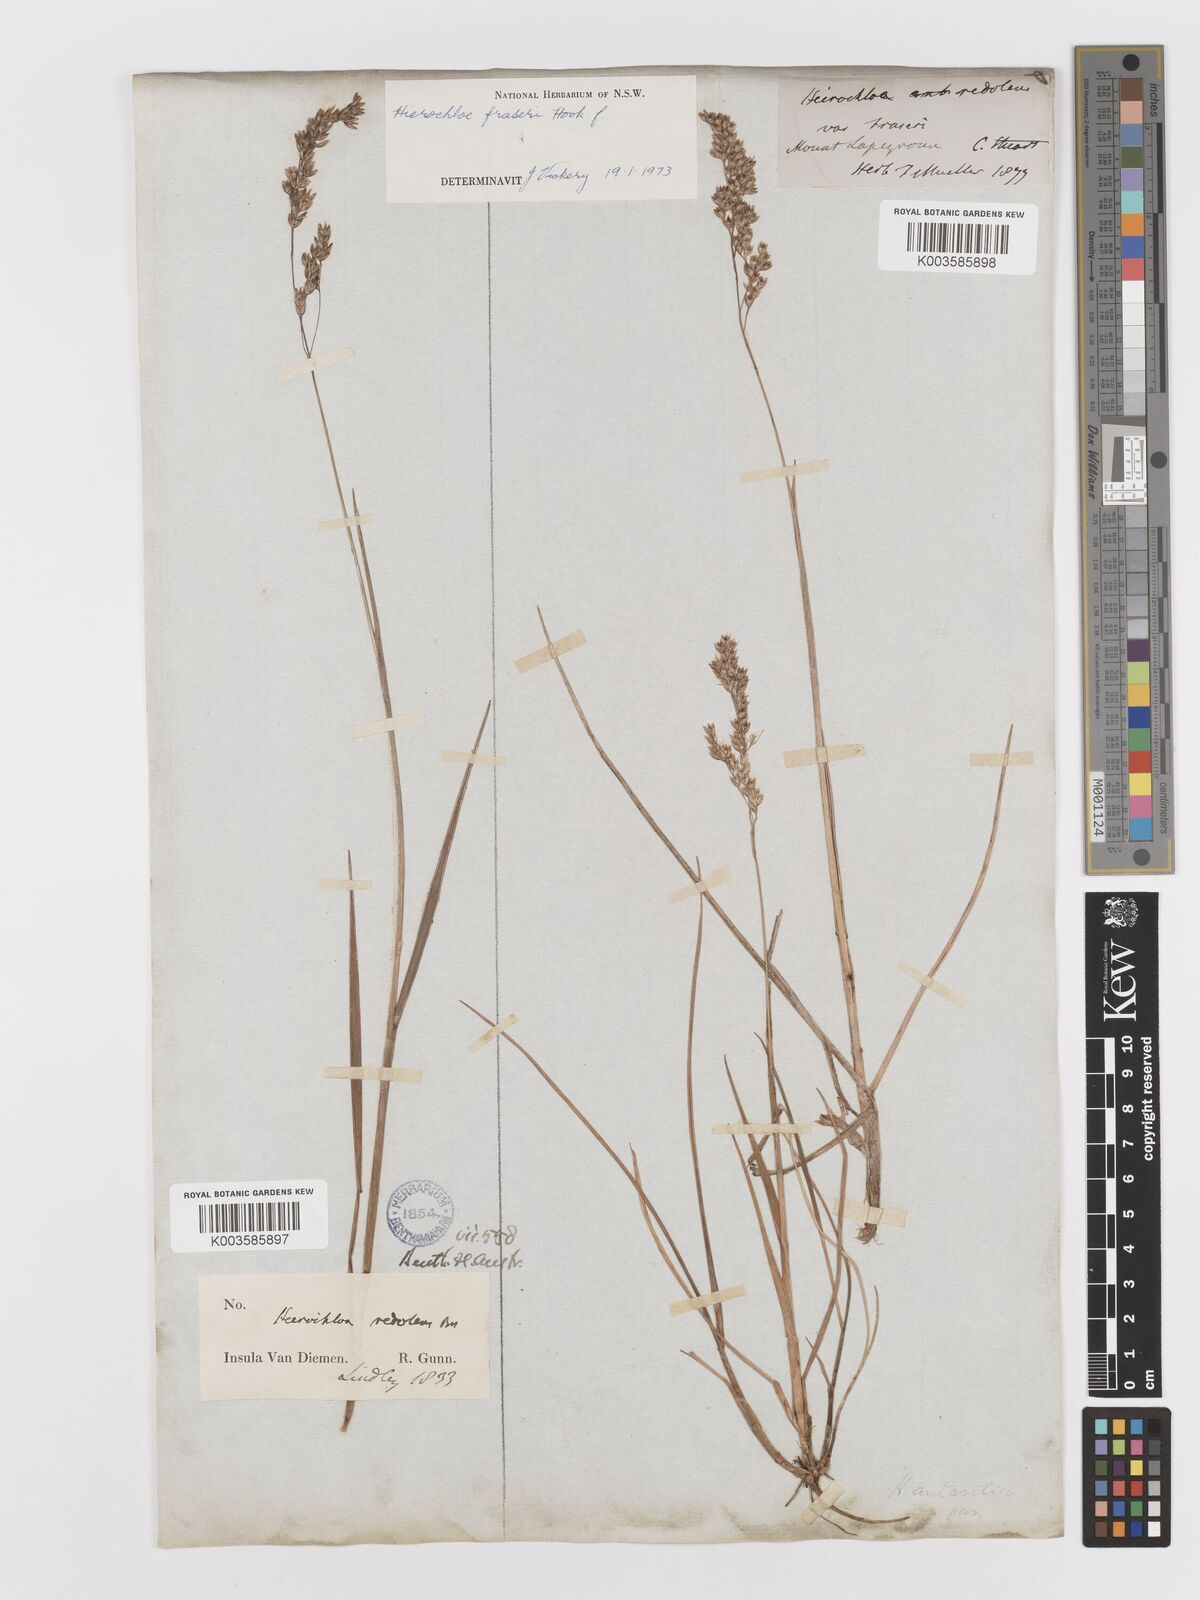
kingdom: Plantae
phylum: Tracheophyta
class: Liliopsida
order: Poales
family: Poaceae
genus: Anthoxanthum
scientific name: Anthoxanthum redolens
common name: Sweet holy grass
